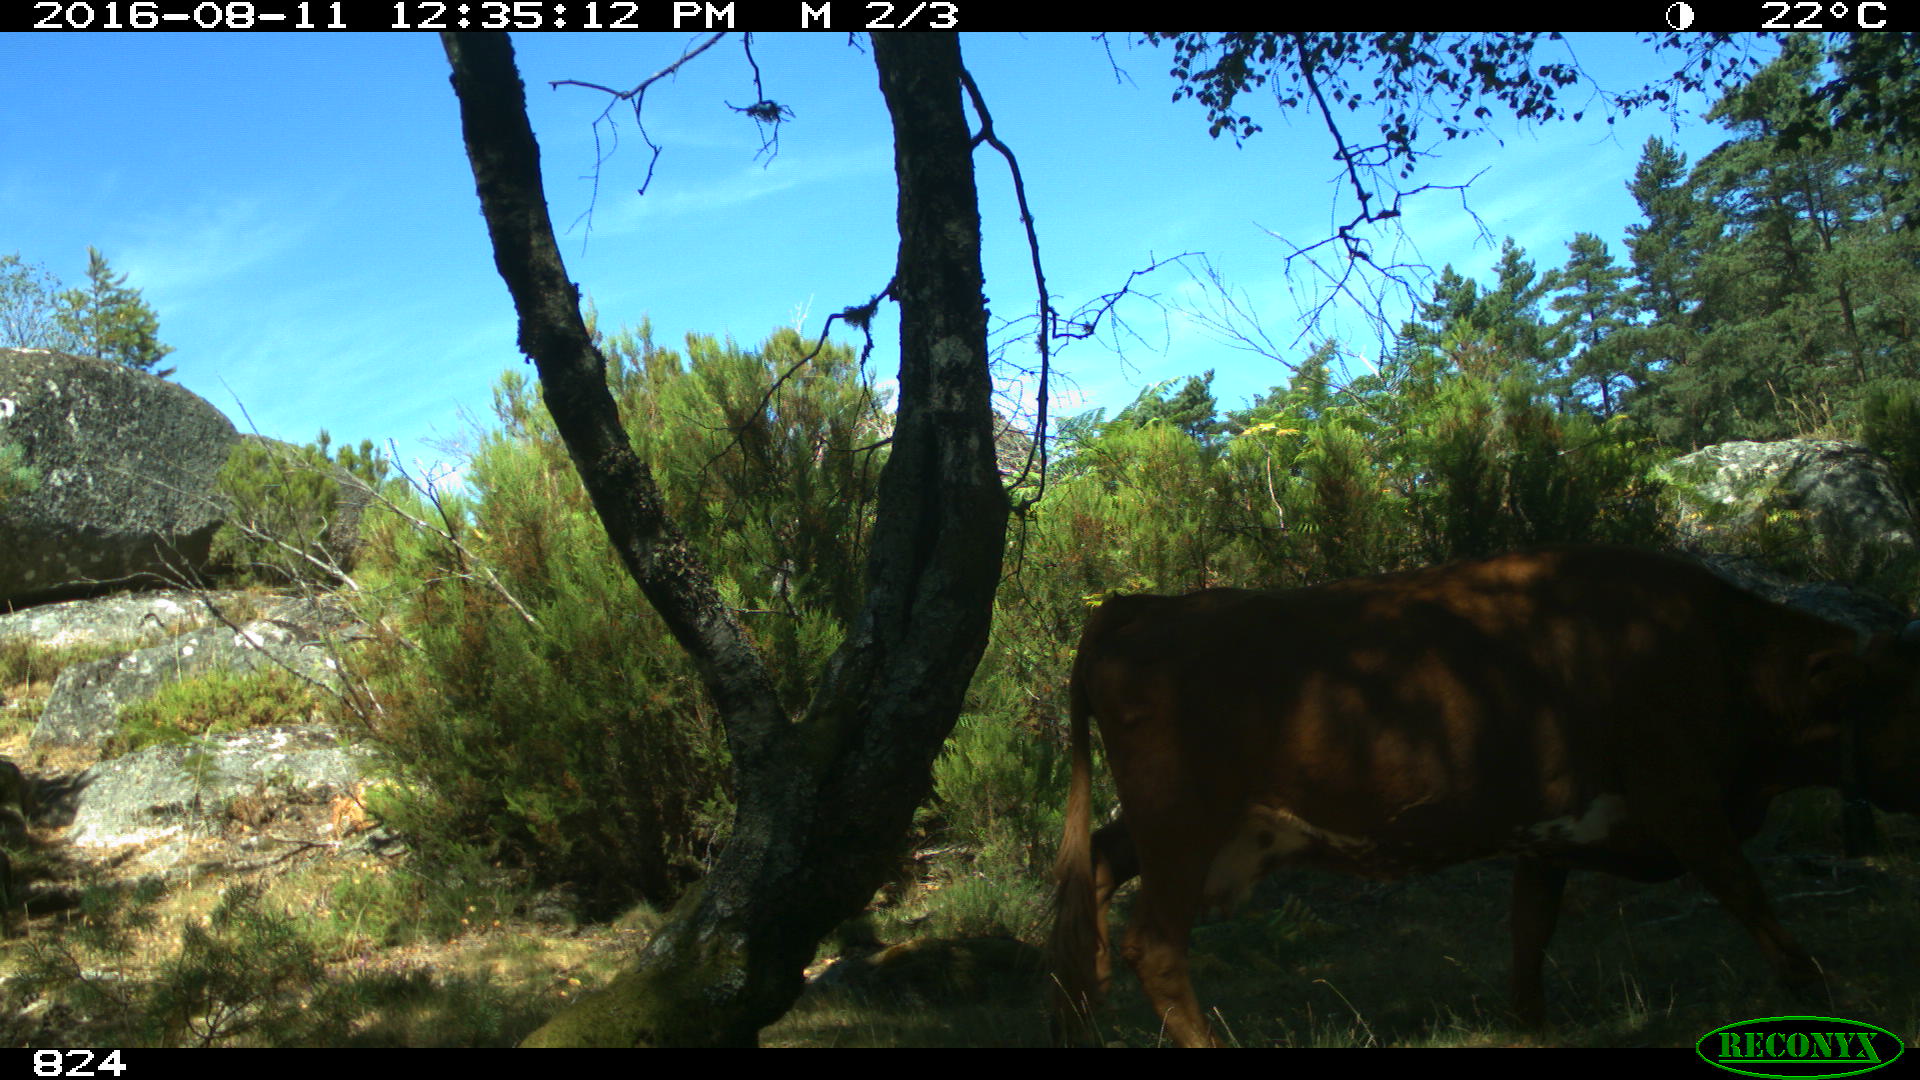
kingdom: Animalia
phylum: Chordata
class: Mammalia
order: Artiodactyla
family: Bovidae
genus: Bos
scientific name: Bos taurus
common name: Domesticated cattle
